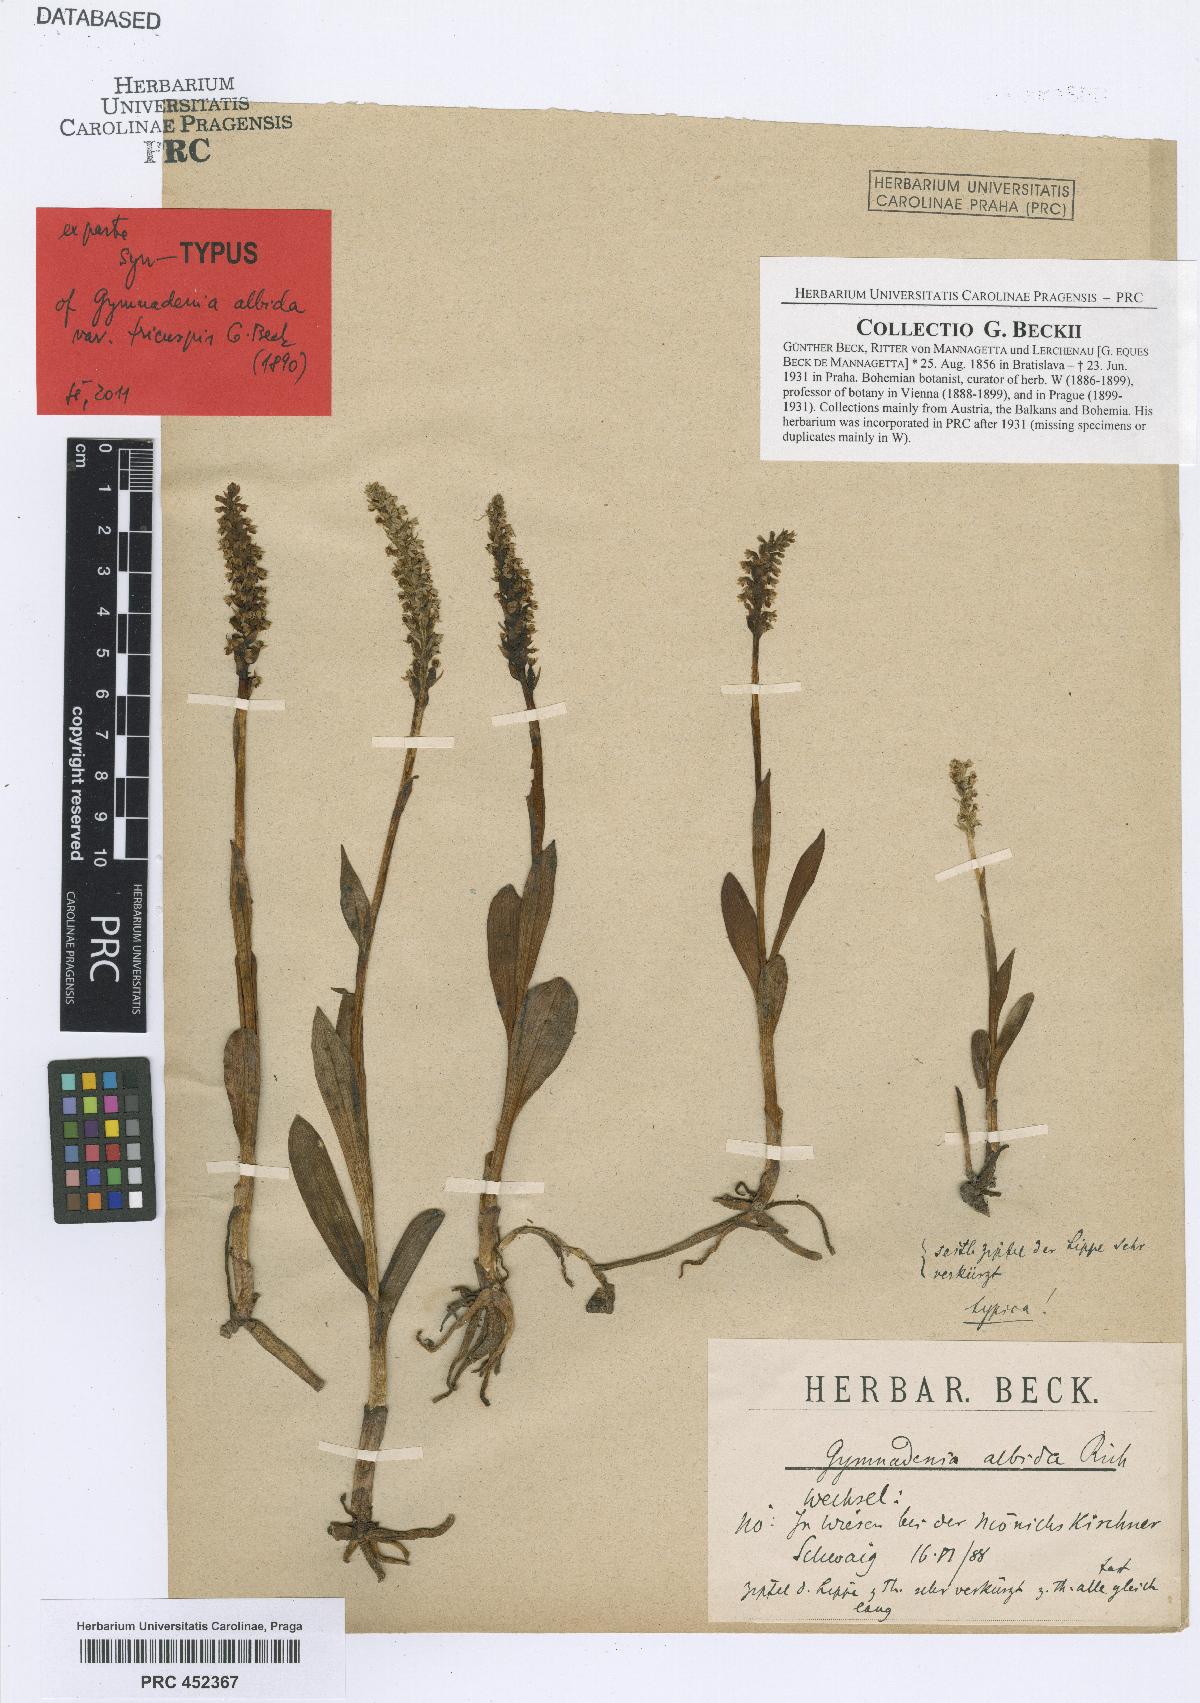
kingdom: Plantae
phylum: Tracheophyta
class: Liliopsida
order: Asparagales
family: Orchidaceae
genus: Pseudorchis
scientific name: Pseudorchis albida
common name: Small-white orchid
